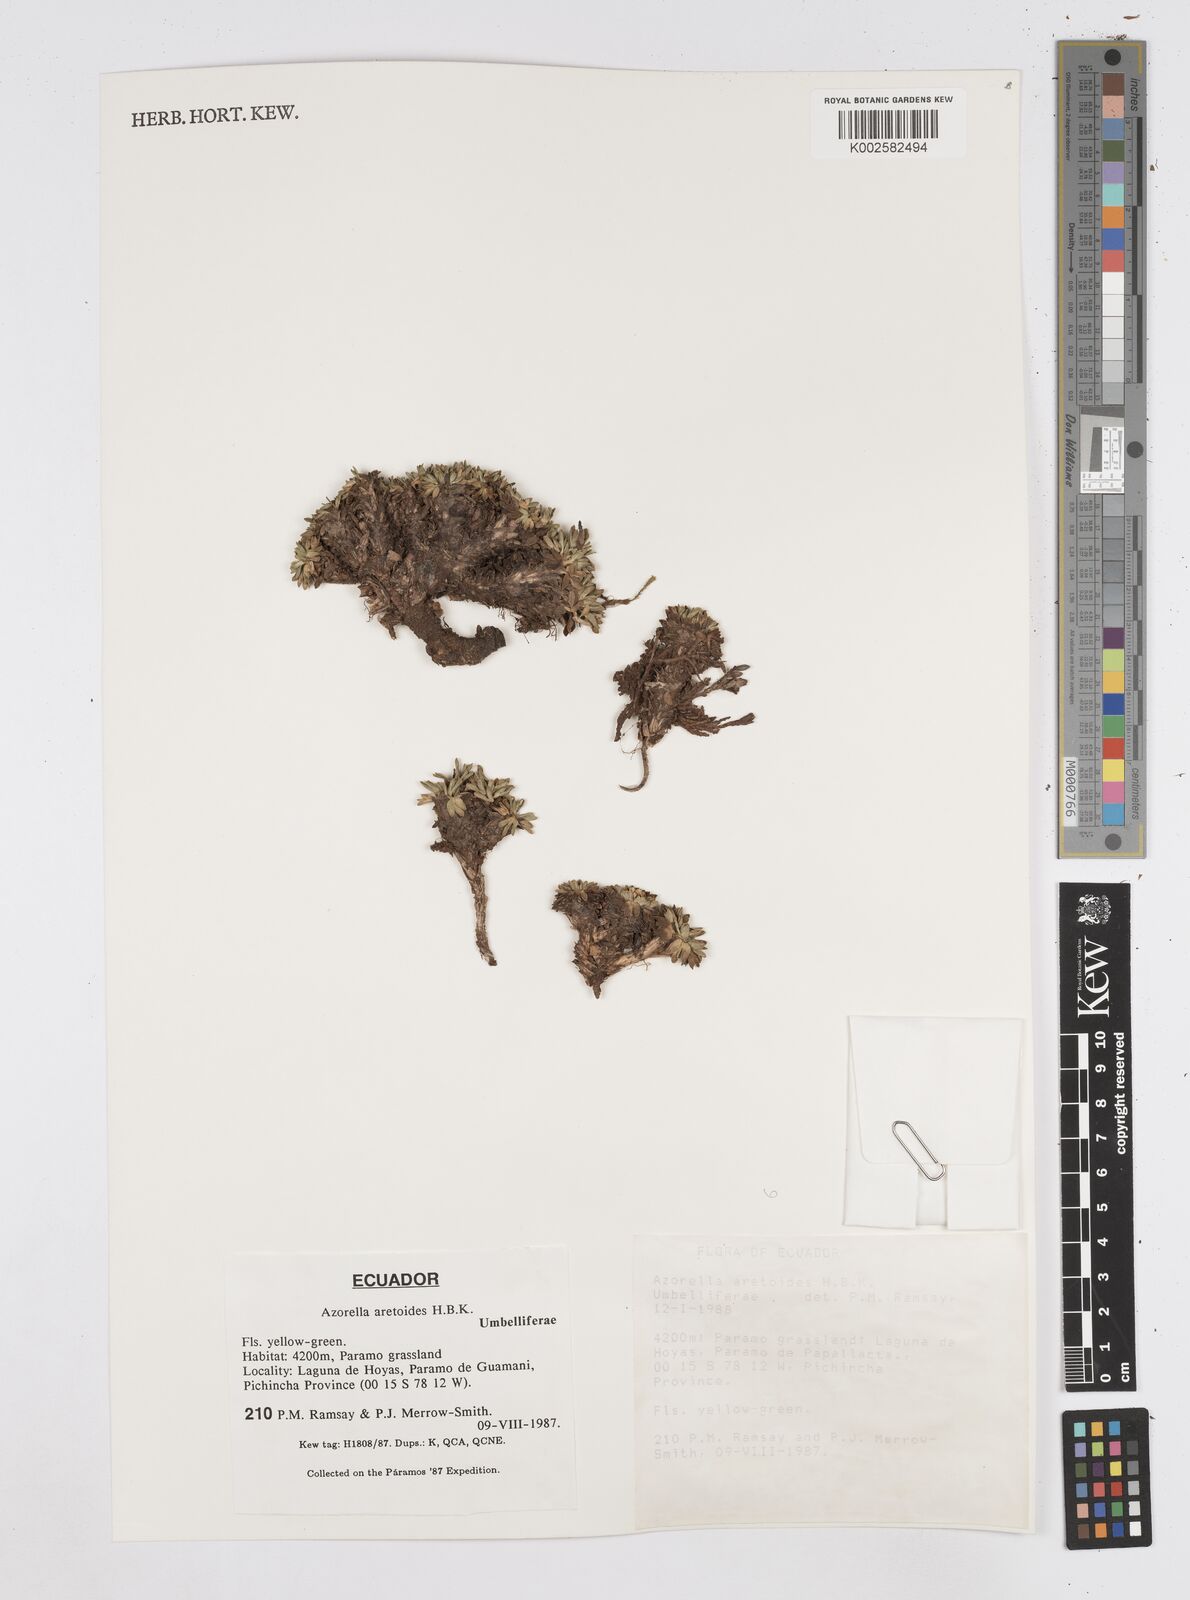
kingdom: Plantae
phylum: Tracheophyta
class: Magnoliopsida
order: Apiales
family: Apiaceae
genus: Azorella
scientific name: Azorella aretioides
